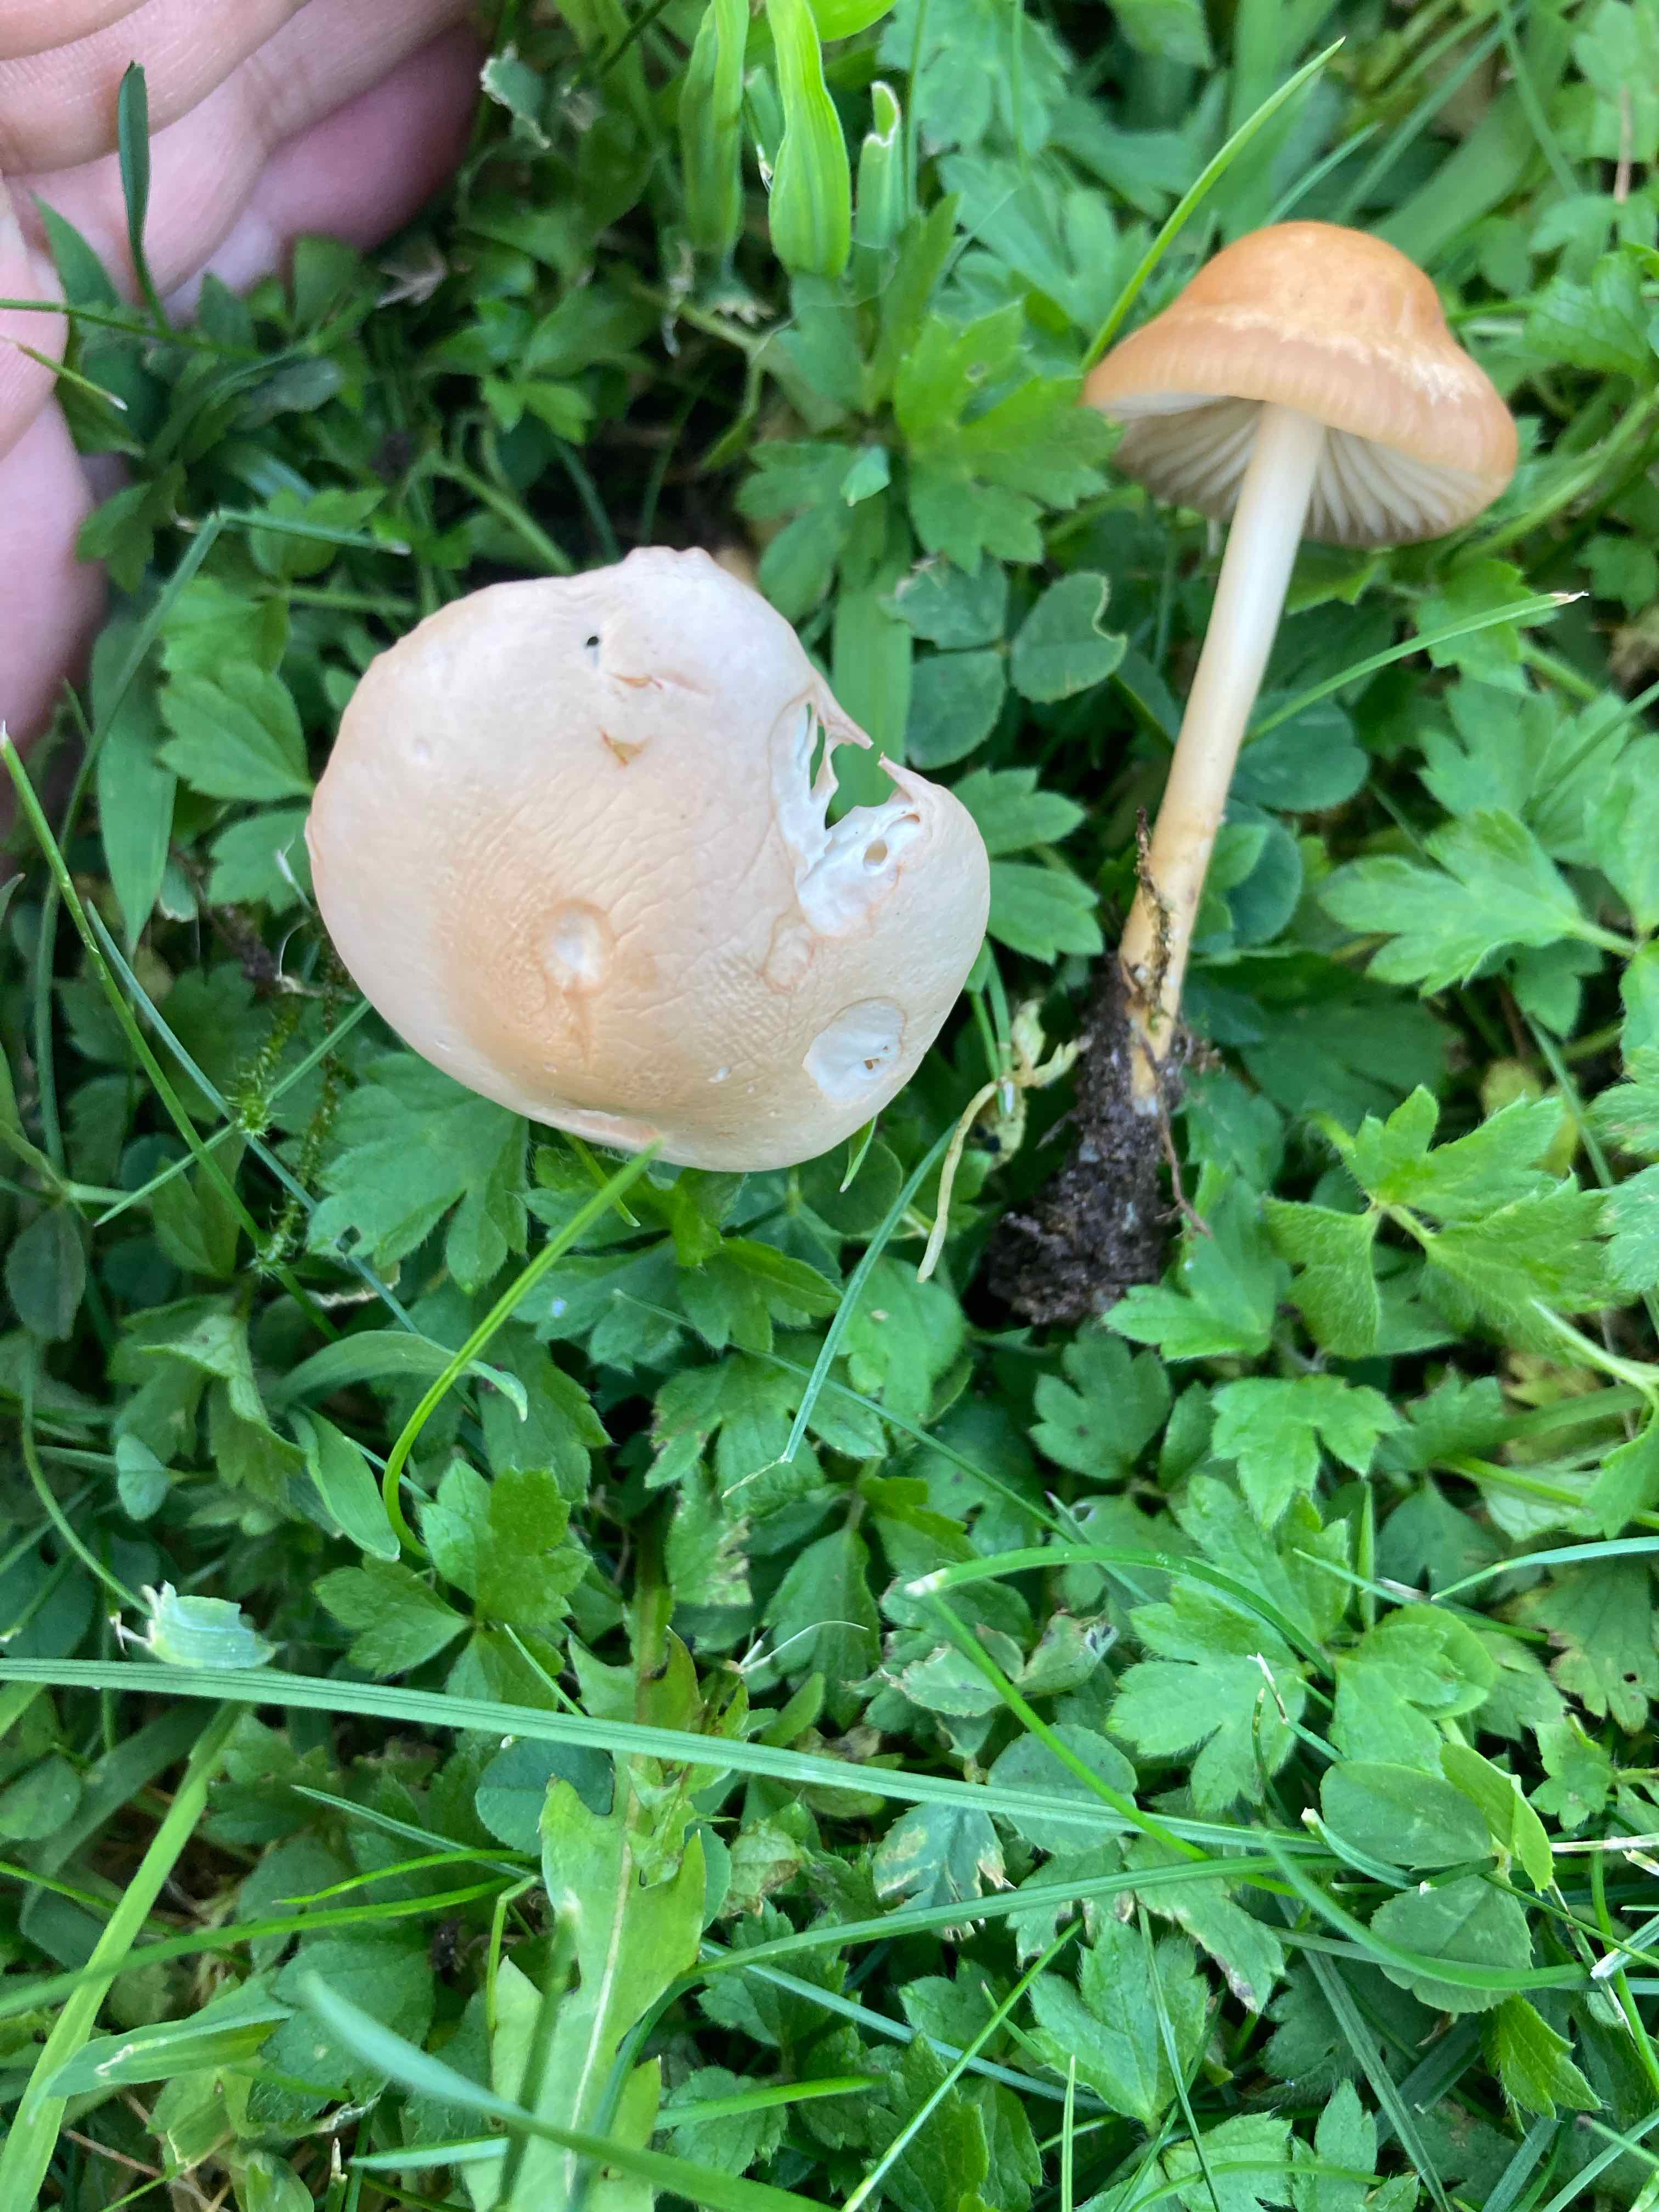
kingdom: Fungi
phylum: Basidiomycota
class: Agaricomycetes
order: Agaricales
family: Marasmiaceae
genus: Marasmius
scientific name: Marasmius oreades
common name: elledans-bruskhat
